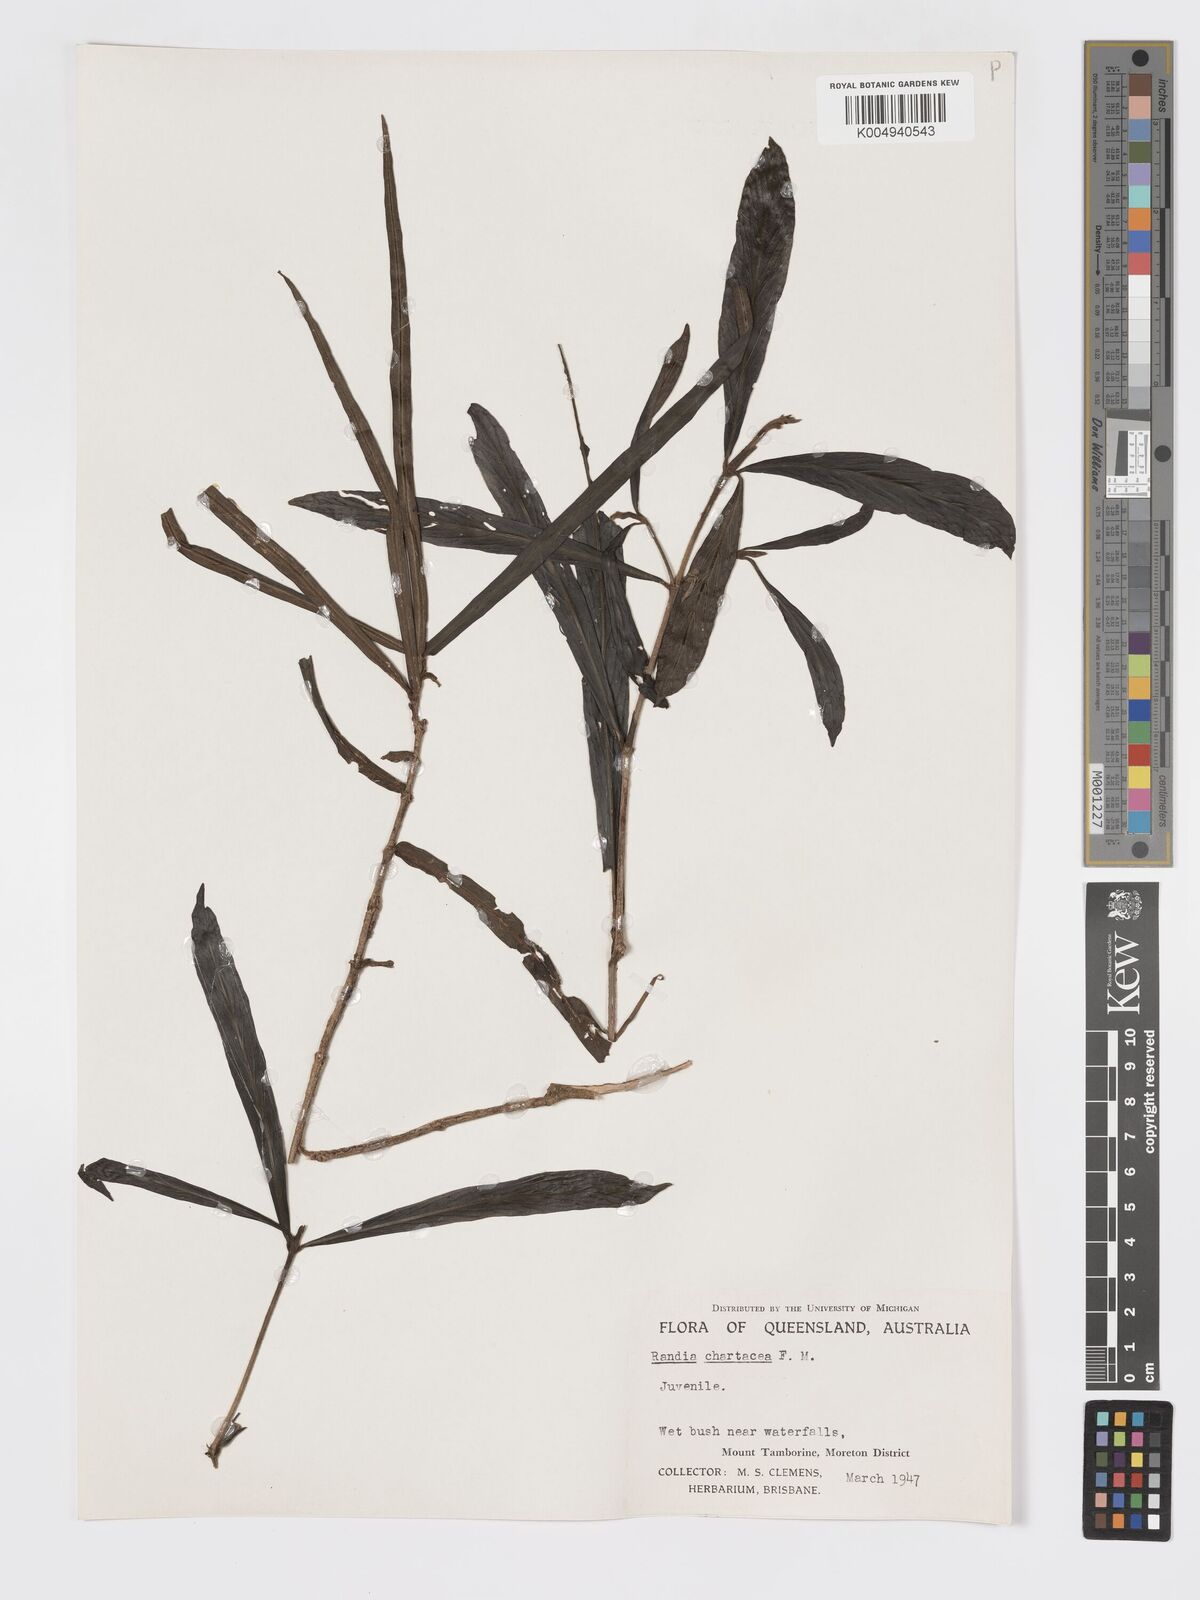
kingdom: Plantae
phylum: Tracheophyta
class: Magnoliopsida
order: Gentianales
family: Rubiaceae
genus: Atractocarpus
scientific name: Atractocarpus chartaceus
